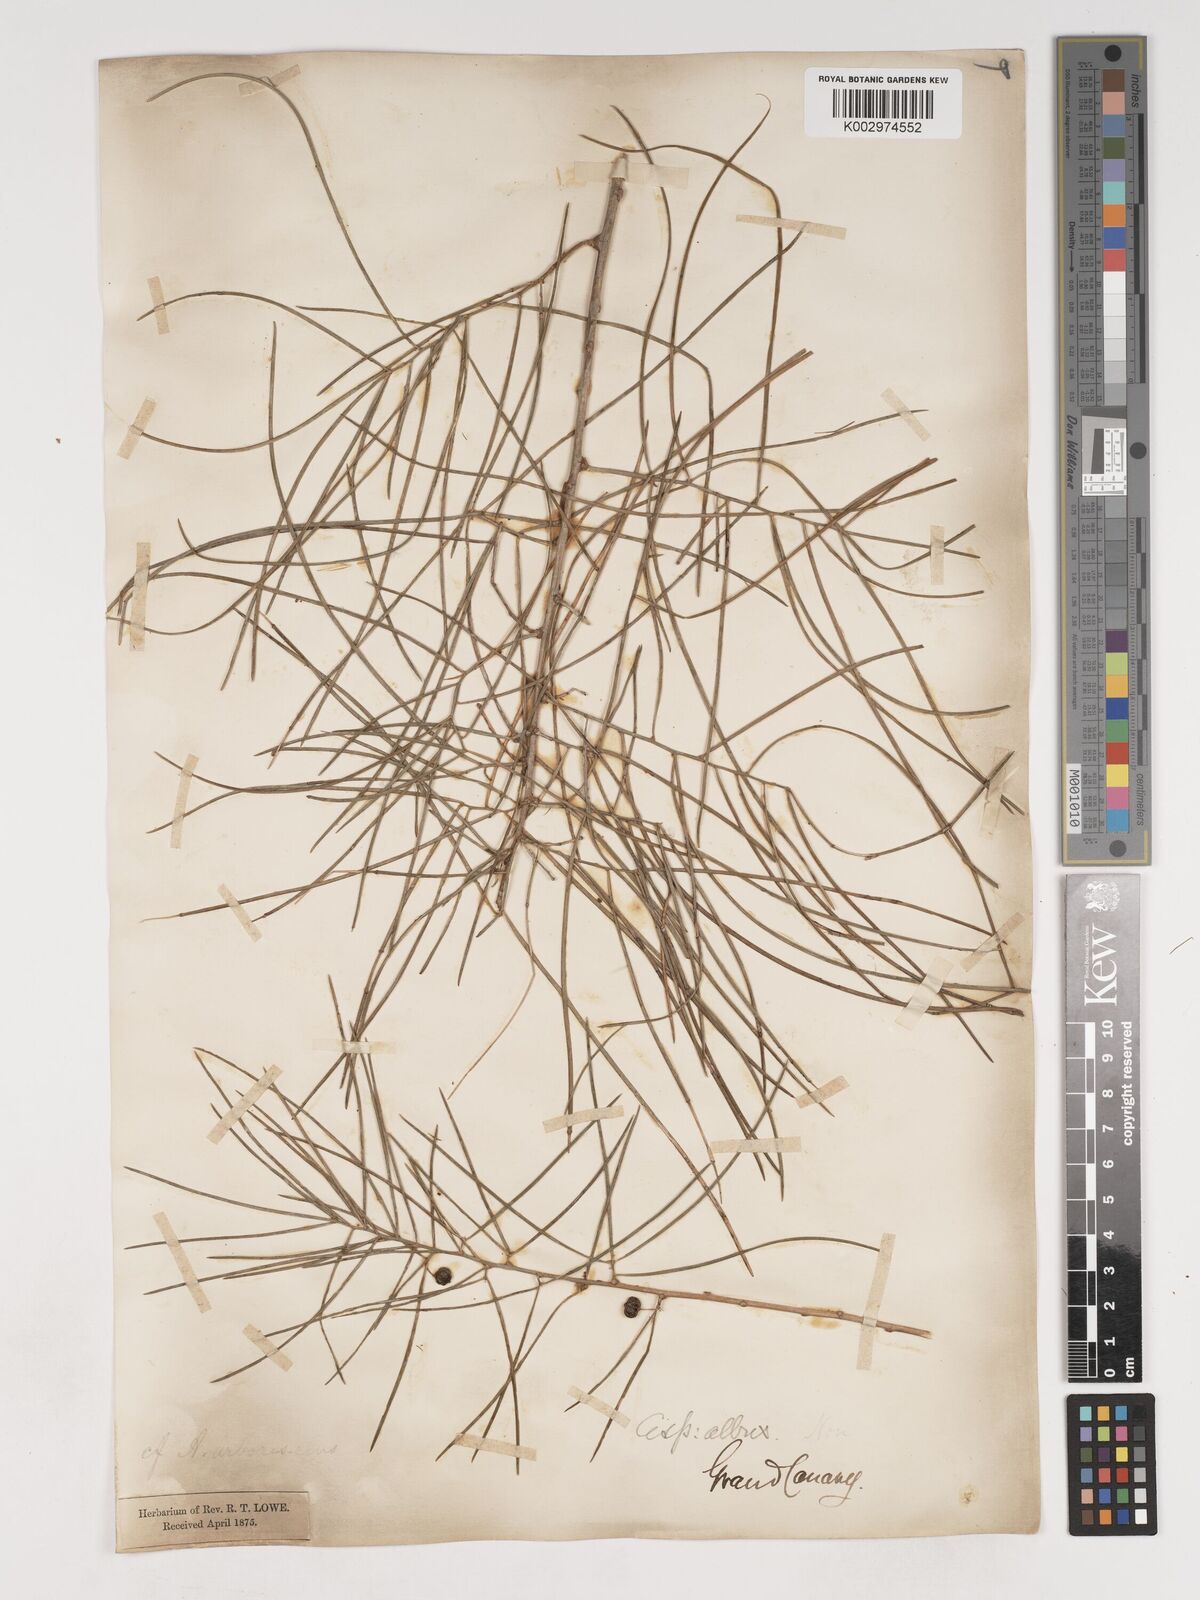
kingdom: Plantae
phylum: Tracheophyta
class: Liliopsida
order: Asparagales
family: Asparagaceae
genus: Asparagus
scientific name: Asparagus arborescens
